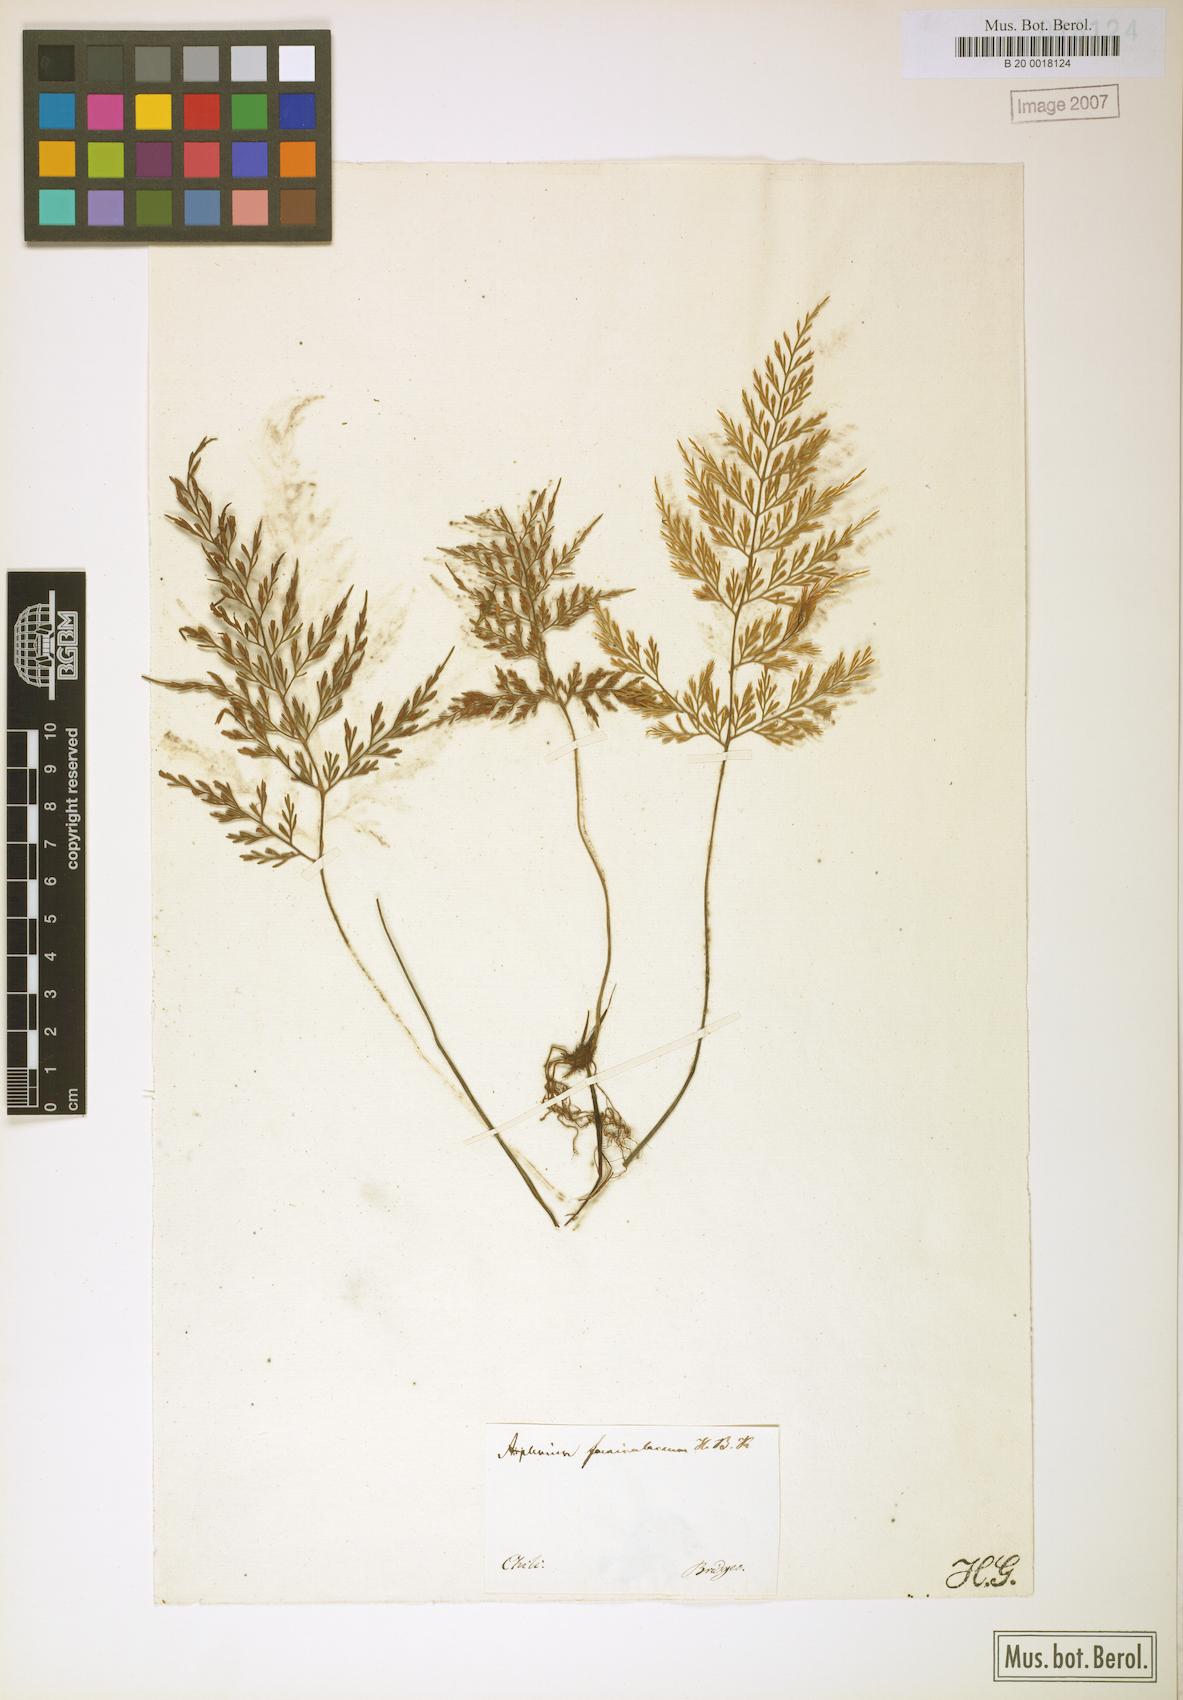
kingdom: Plantae
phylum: Tracheophyta
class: Polypodiopsida
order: Polypodiales
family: Aspleniaceae
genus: Asplenium
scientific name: Asplenium millefolium
